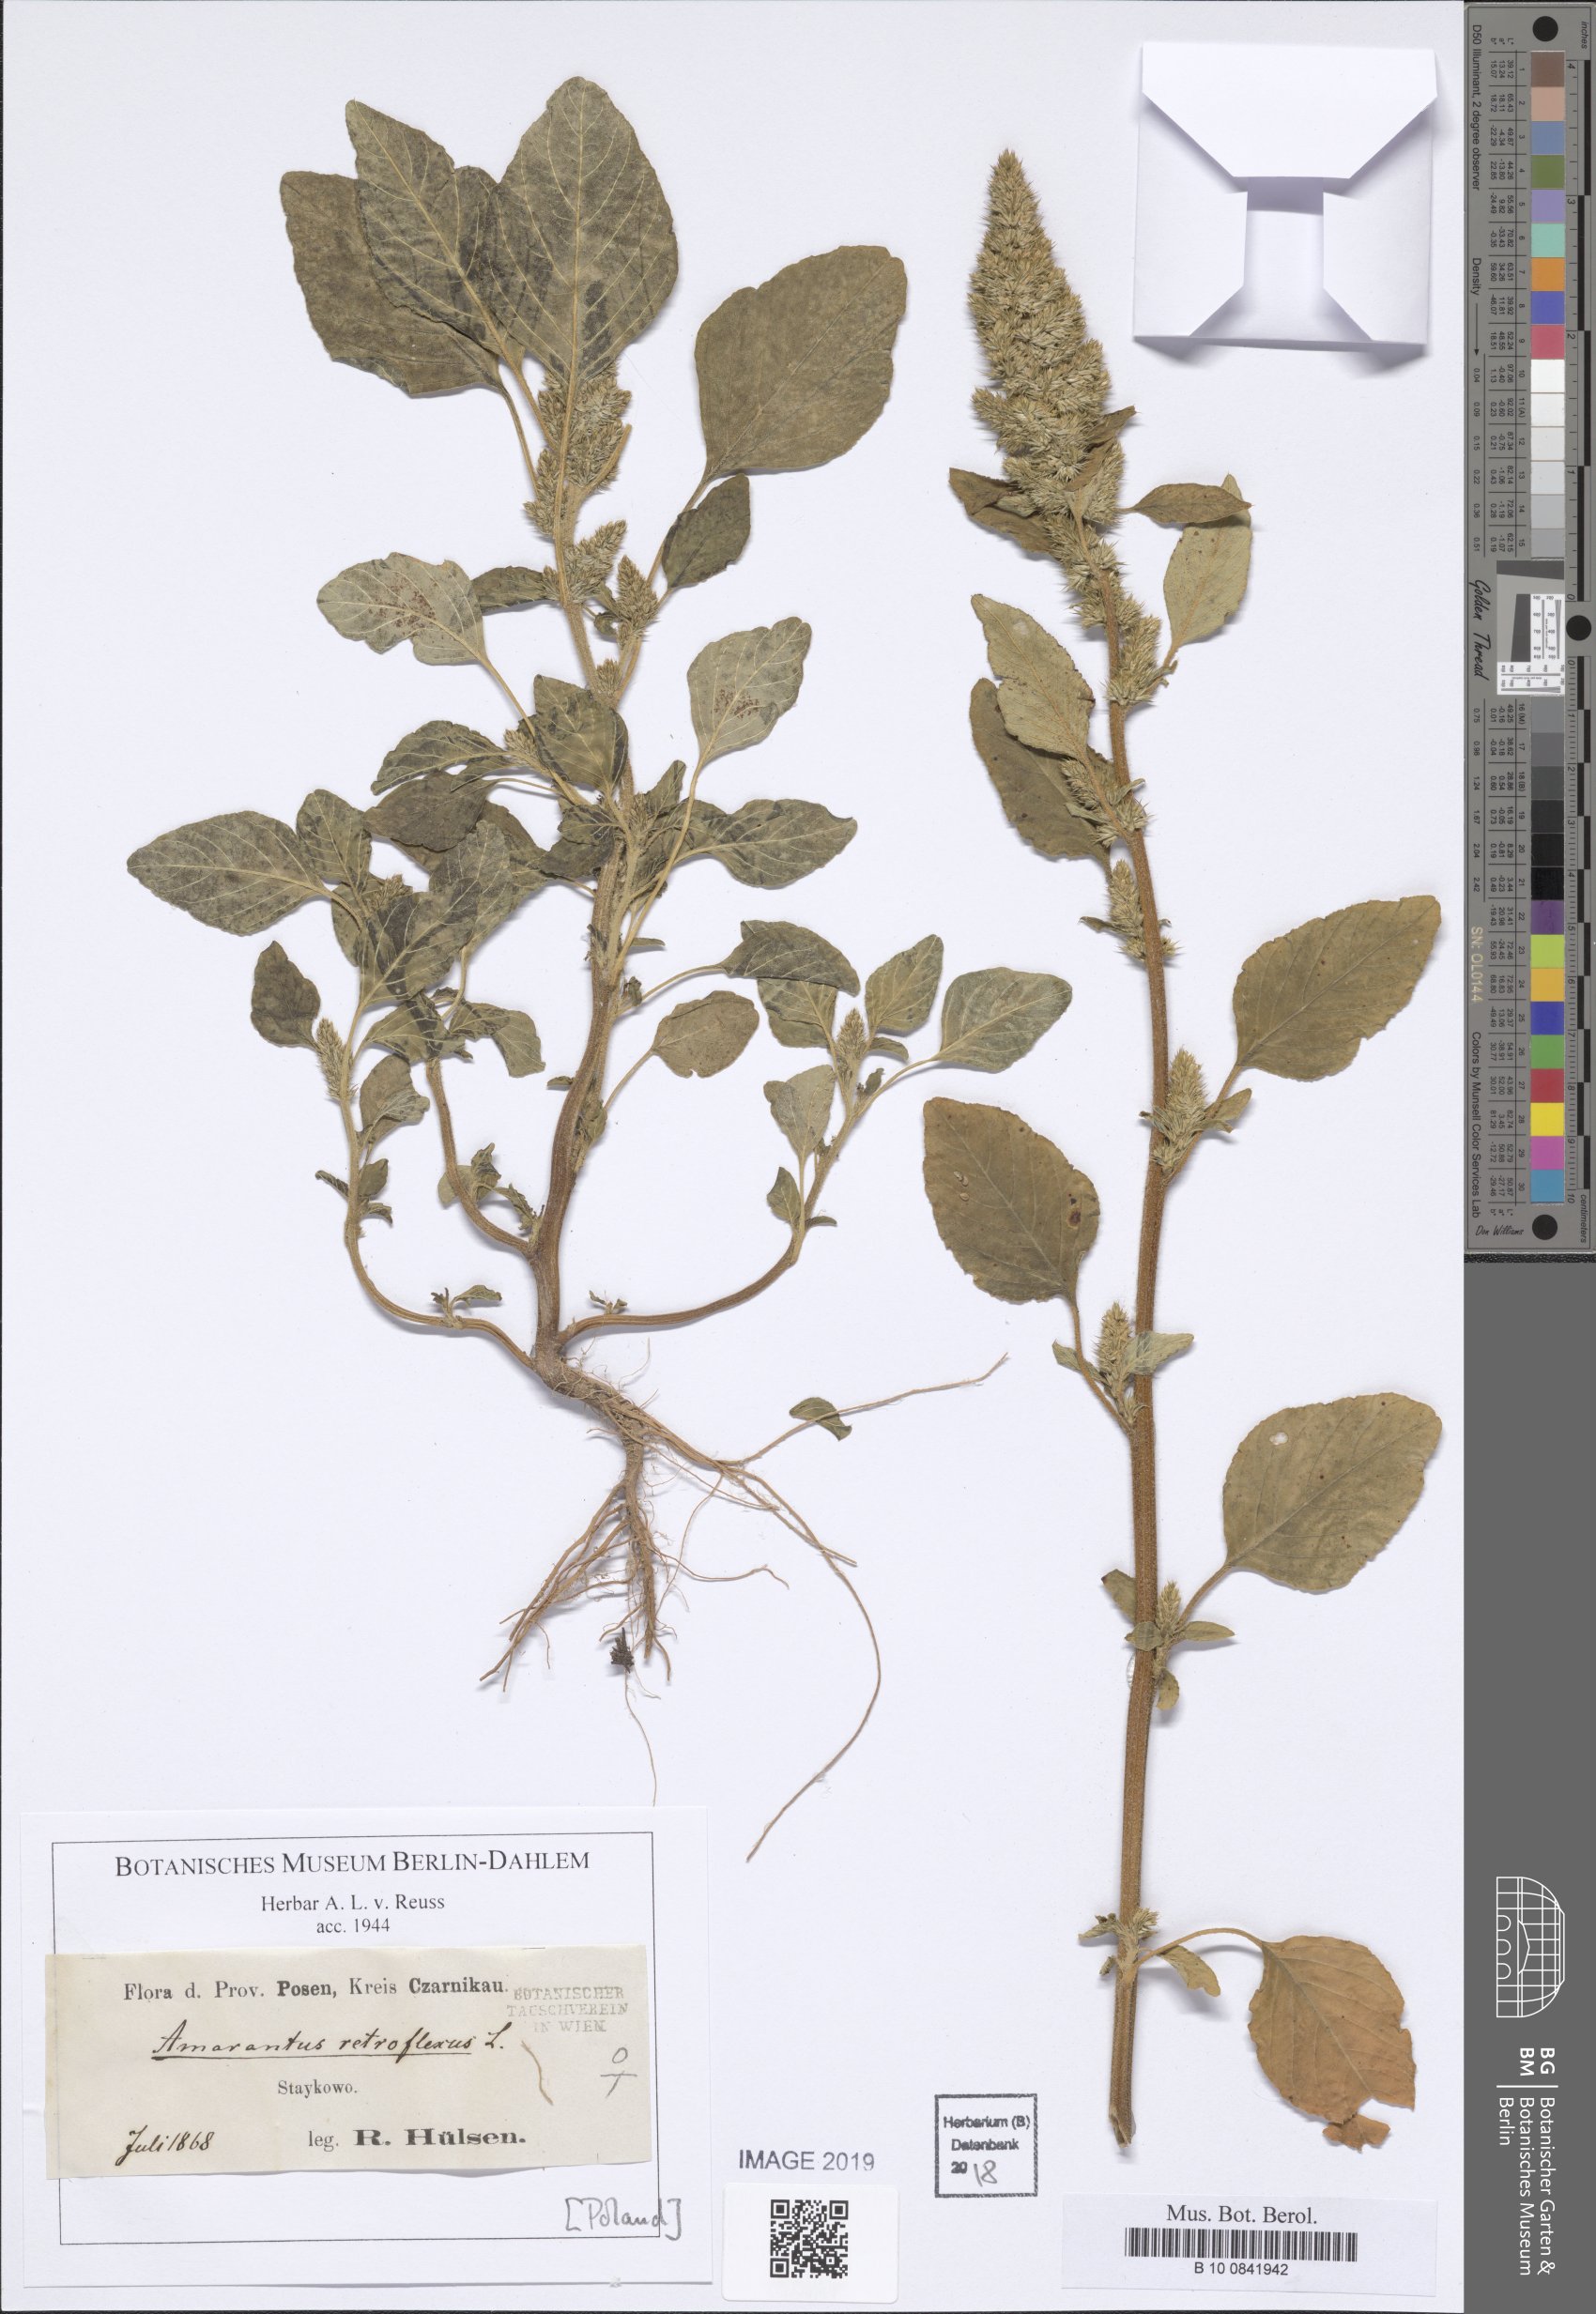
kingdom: Plantae
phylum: Tracheophyta
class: Magnoliopsida
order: Caryophyllales
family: Amaranthaceae
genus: Amaranthus
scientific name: Amaranthus retroflexus
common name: Redroot amaranth
